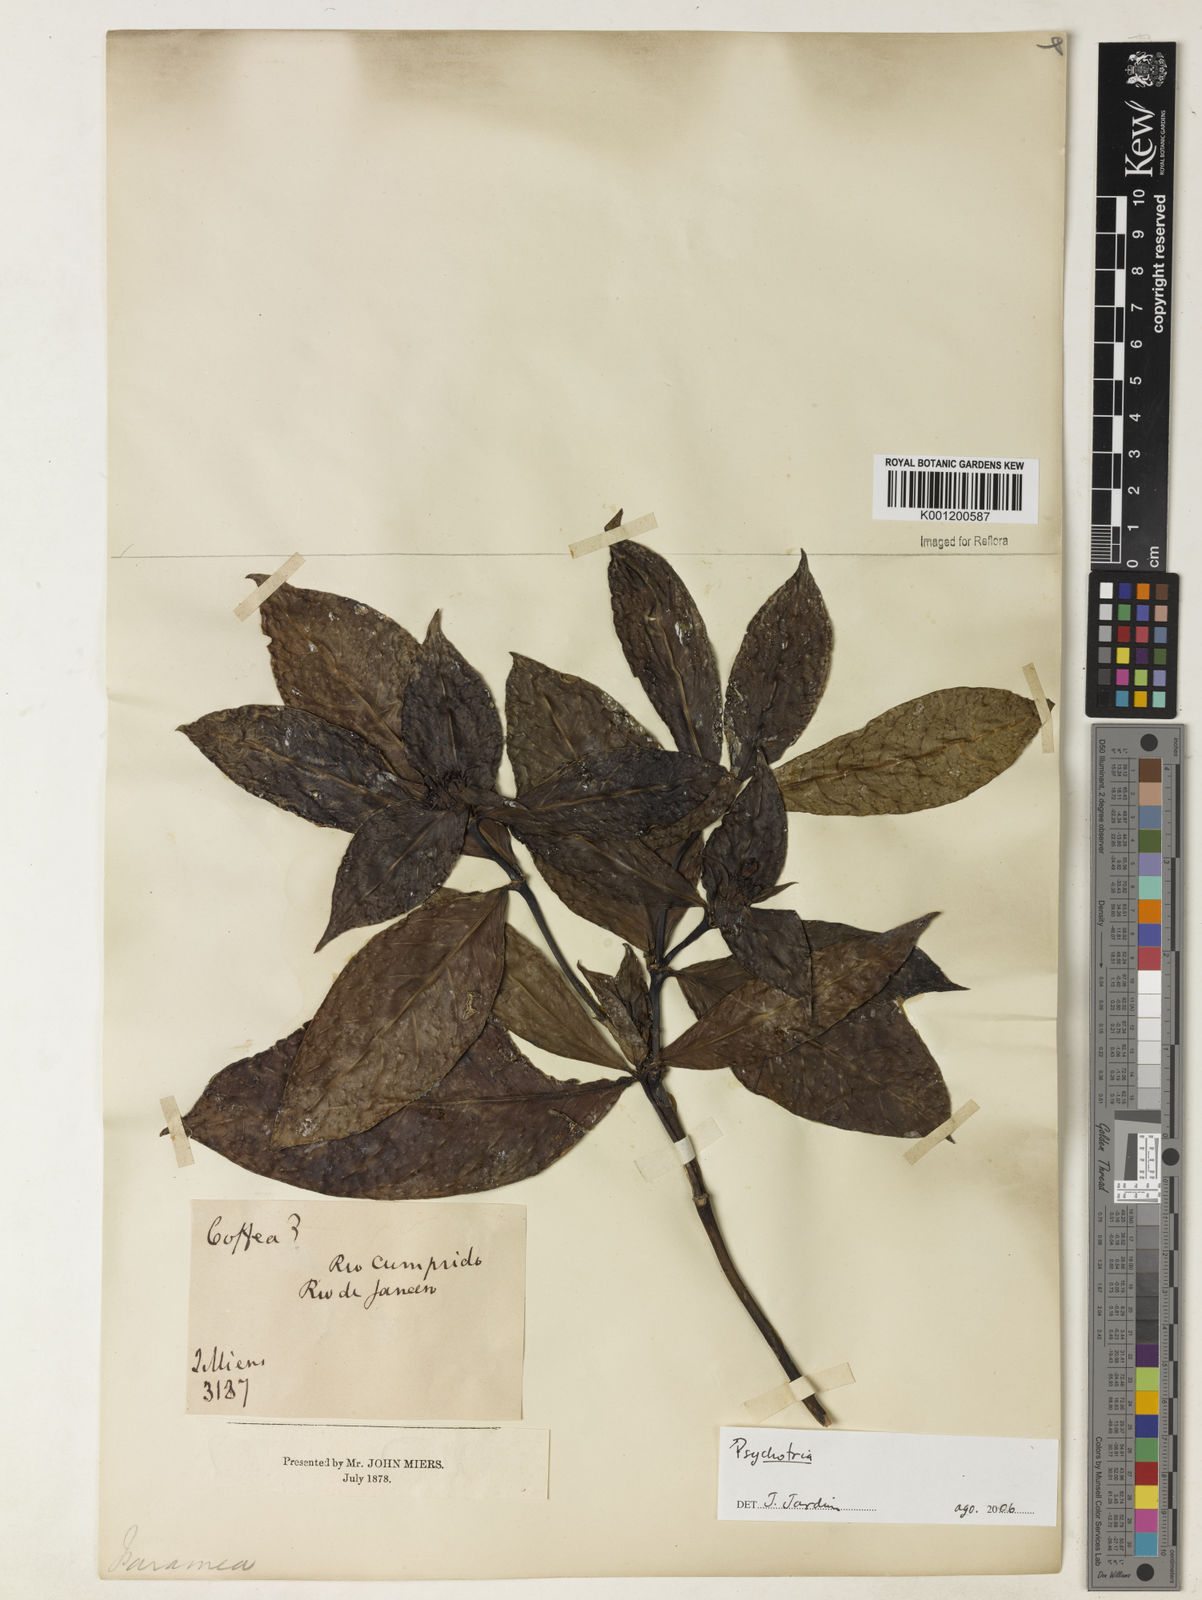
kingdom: Plantae
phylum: Tracheophyta
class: Magnoliopsida
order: Gentianales
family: Rubiaceae
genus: Psychotria
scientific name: Psychotria
